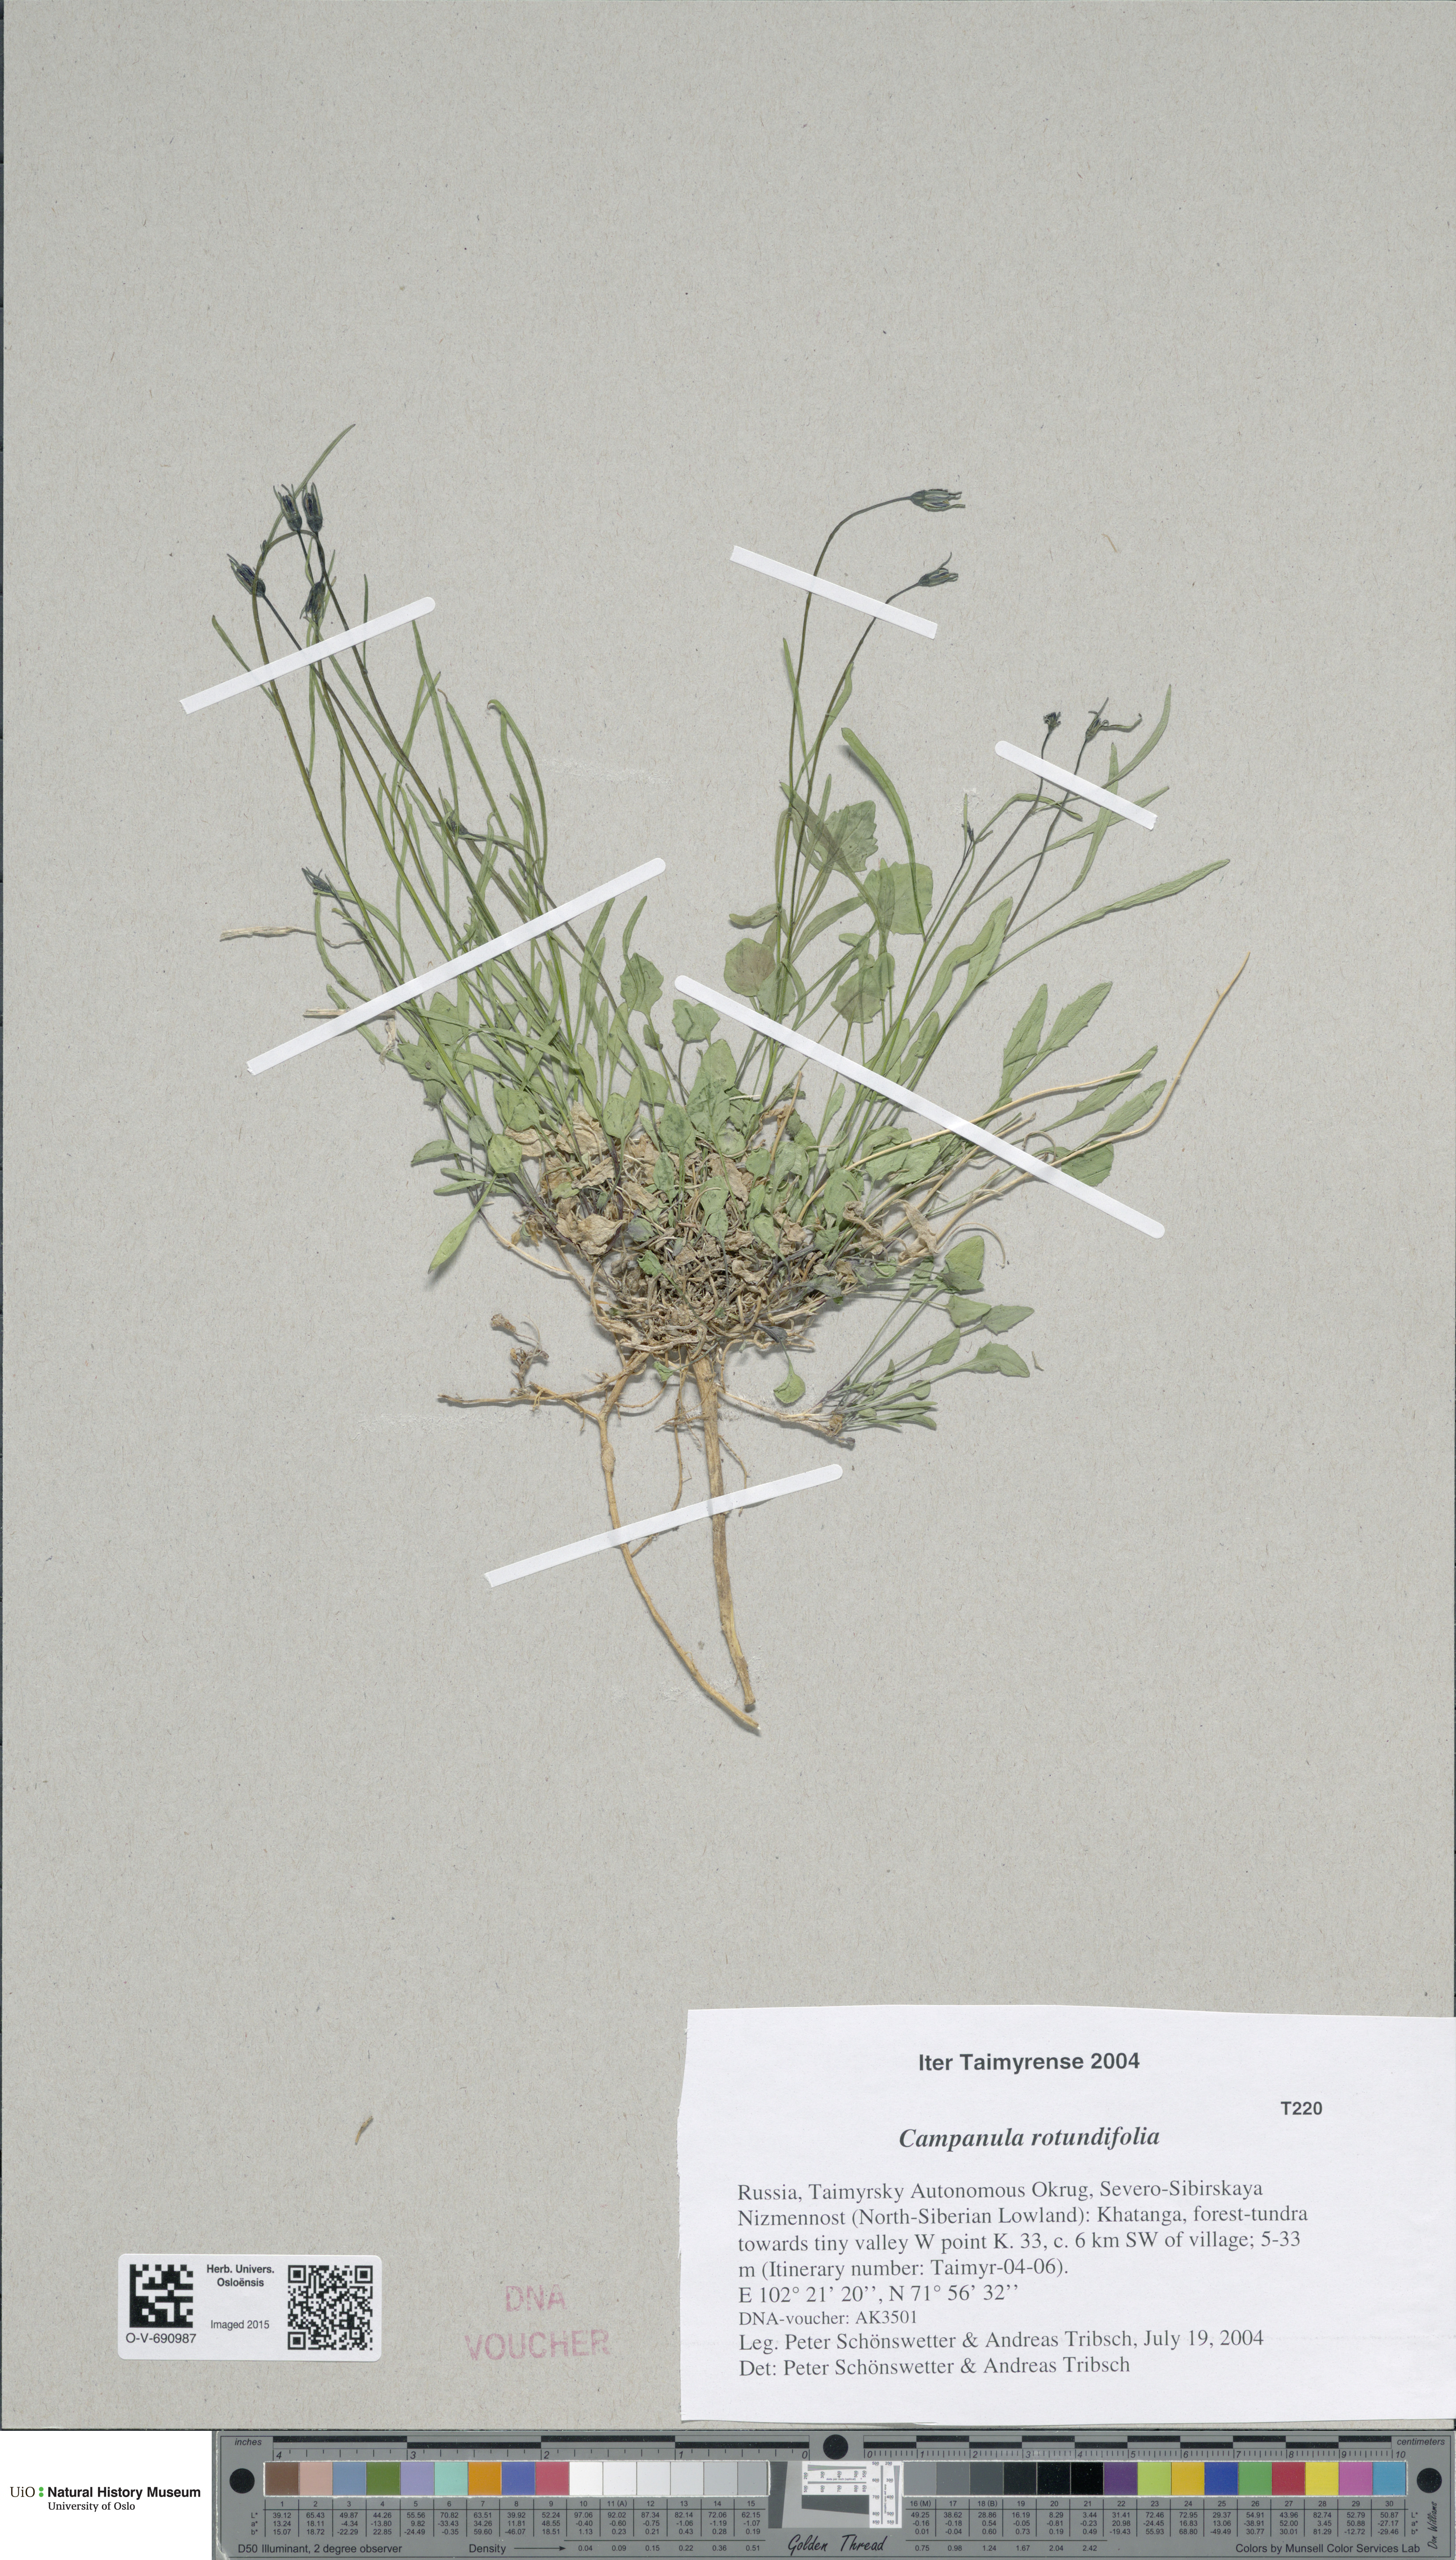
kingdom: Plantae
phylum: Tracheophyta
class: Magnoliopsida
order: Asterales
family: Campanulaceae
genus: Campanula
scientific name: Campanula rotundifolia
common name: Harebell
